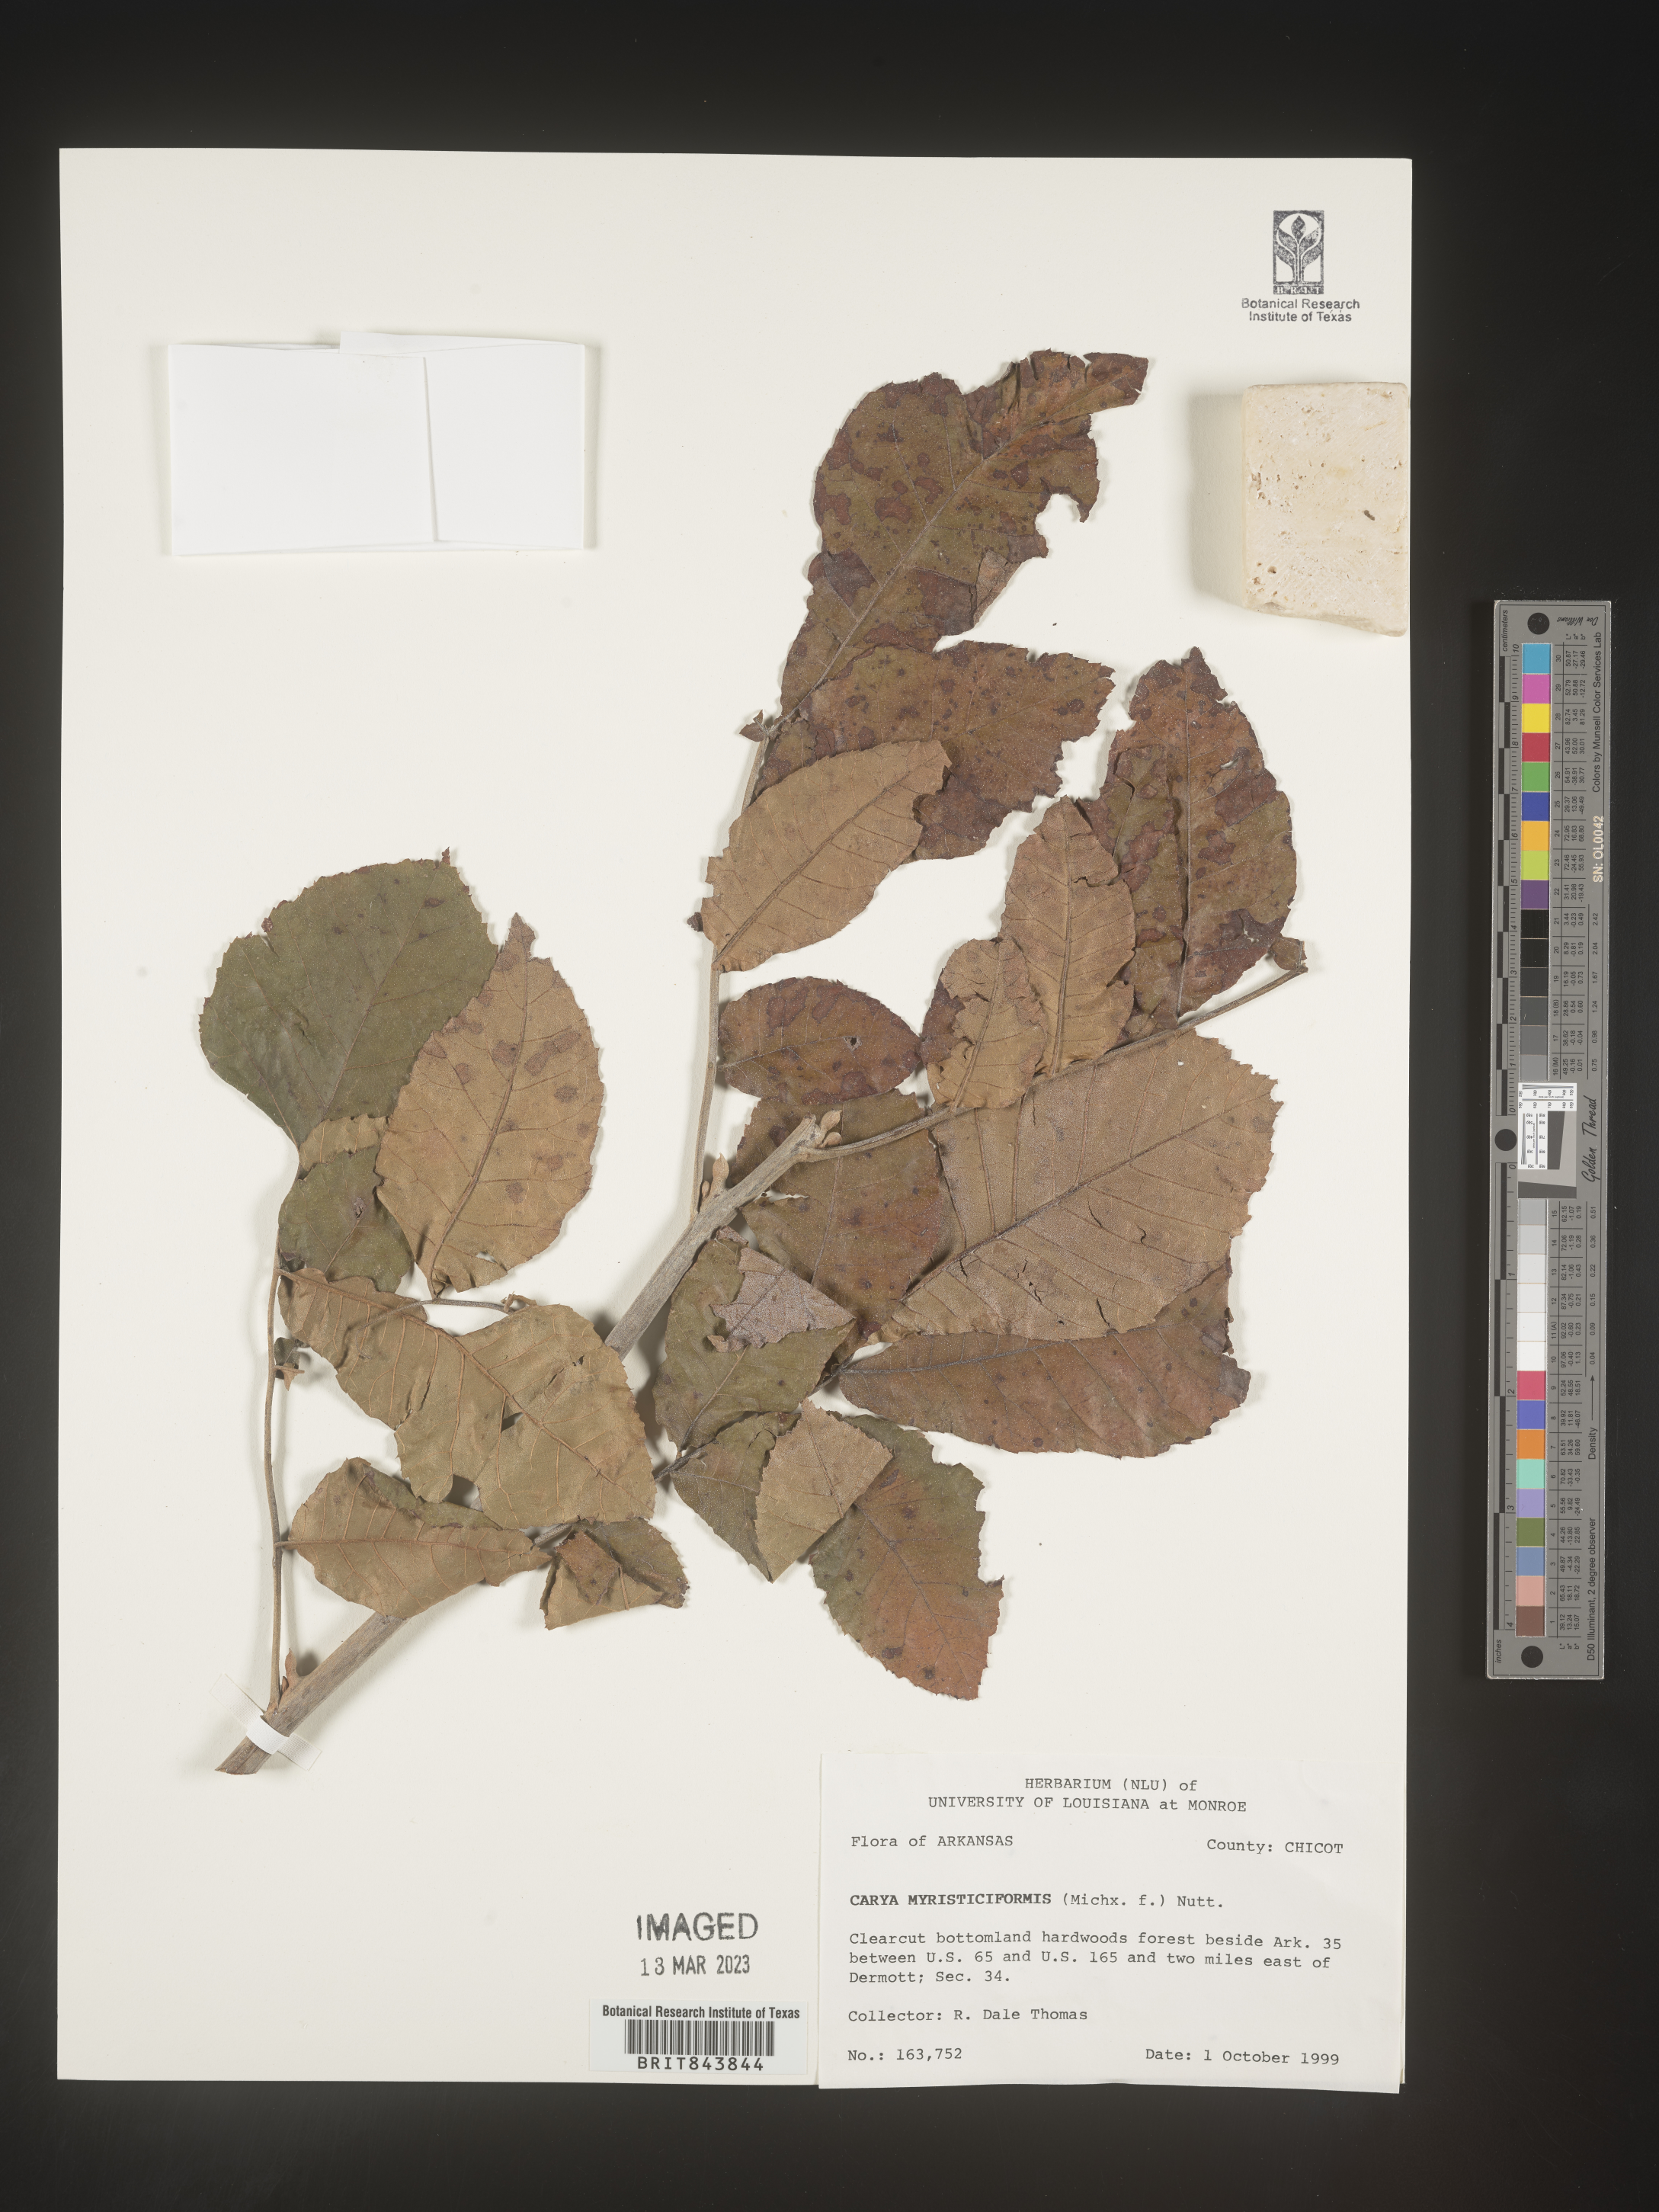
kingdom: Plantae
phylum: Tracheophyta
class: Magnoliopsida
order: Fagales
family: Juglandaceae
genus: Carya
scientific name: Carya myristiciformis
